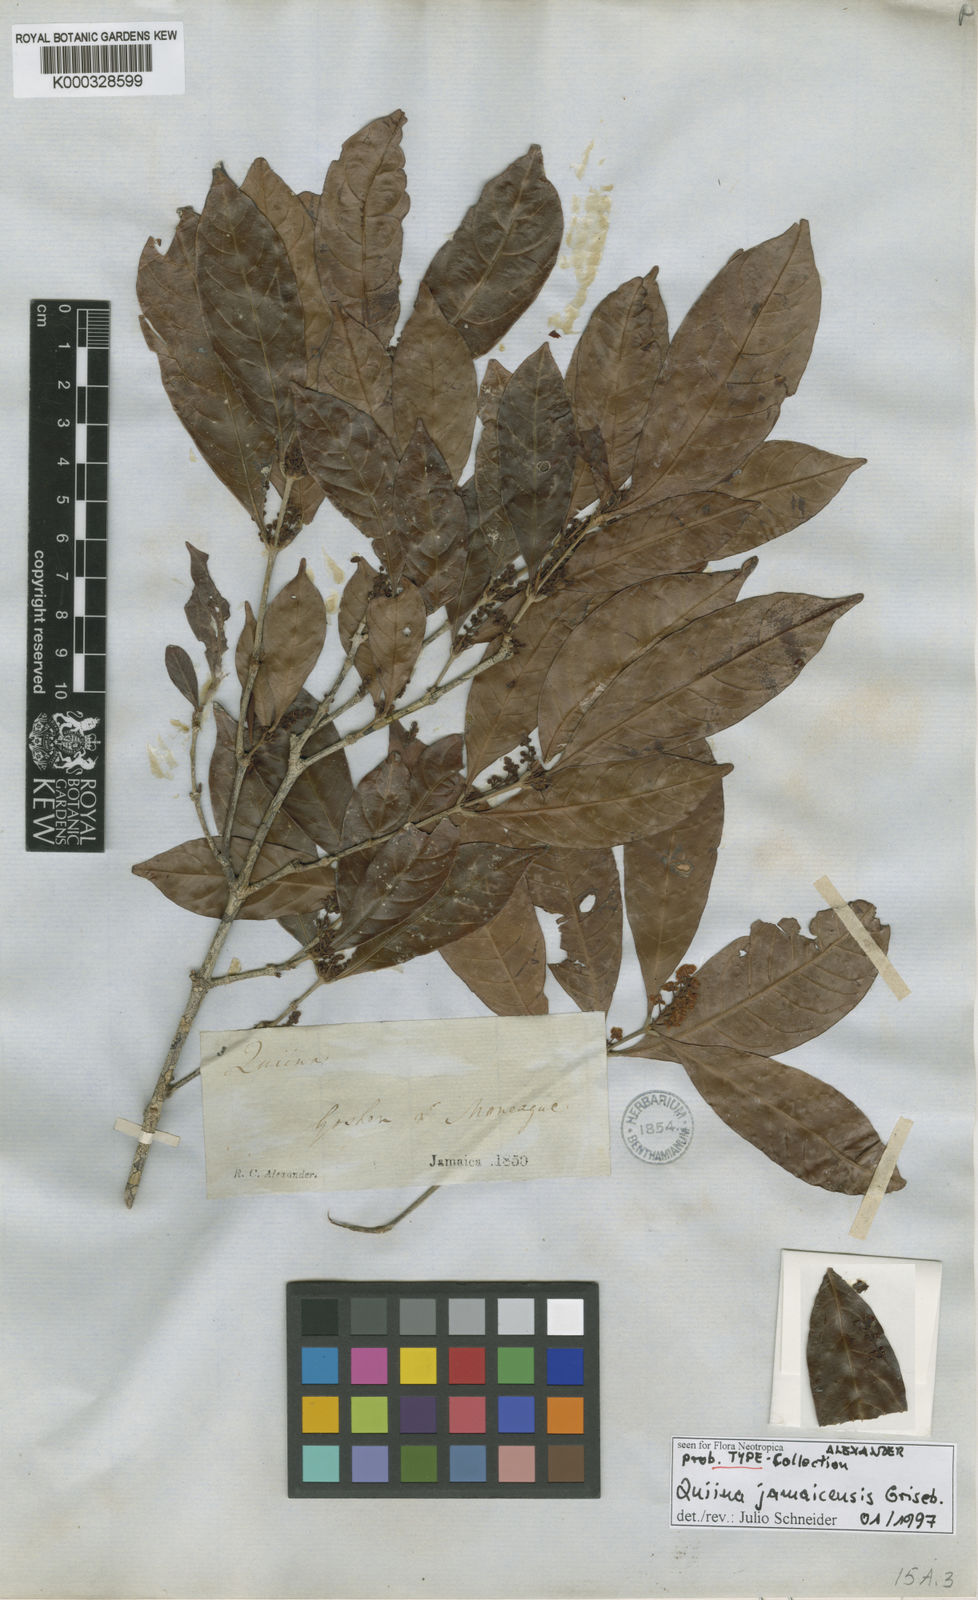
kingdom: Plantae
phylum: Tracheophyta
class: Magnoliopsida
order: Malpighiales
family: Quiinaceae
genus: Quiina
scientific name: Quiina jamaicensis
